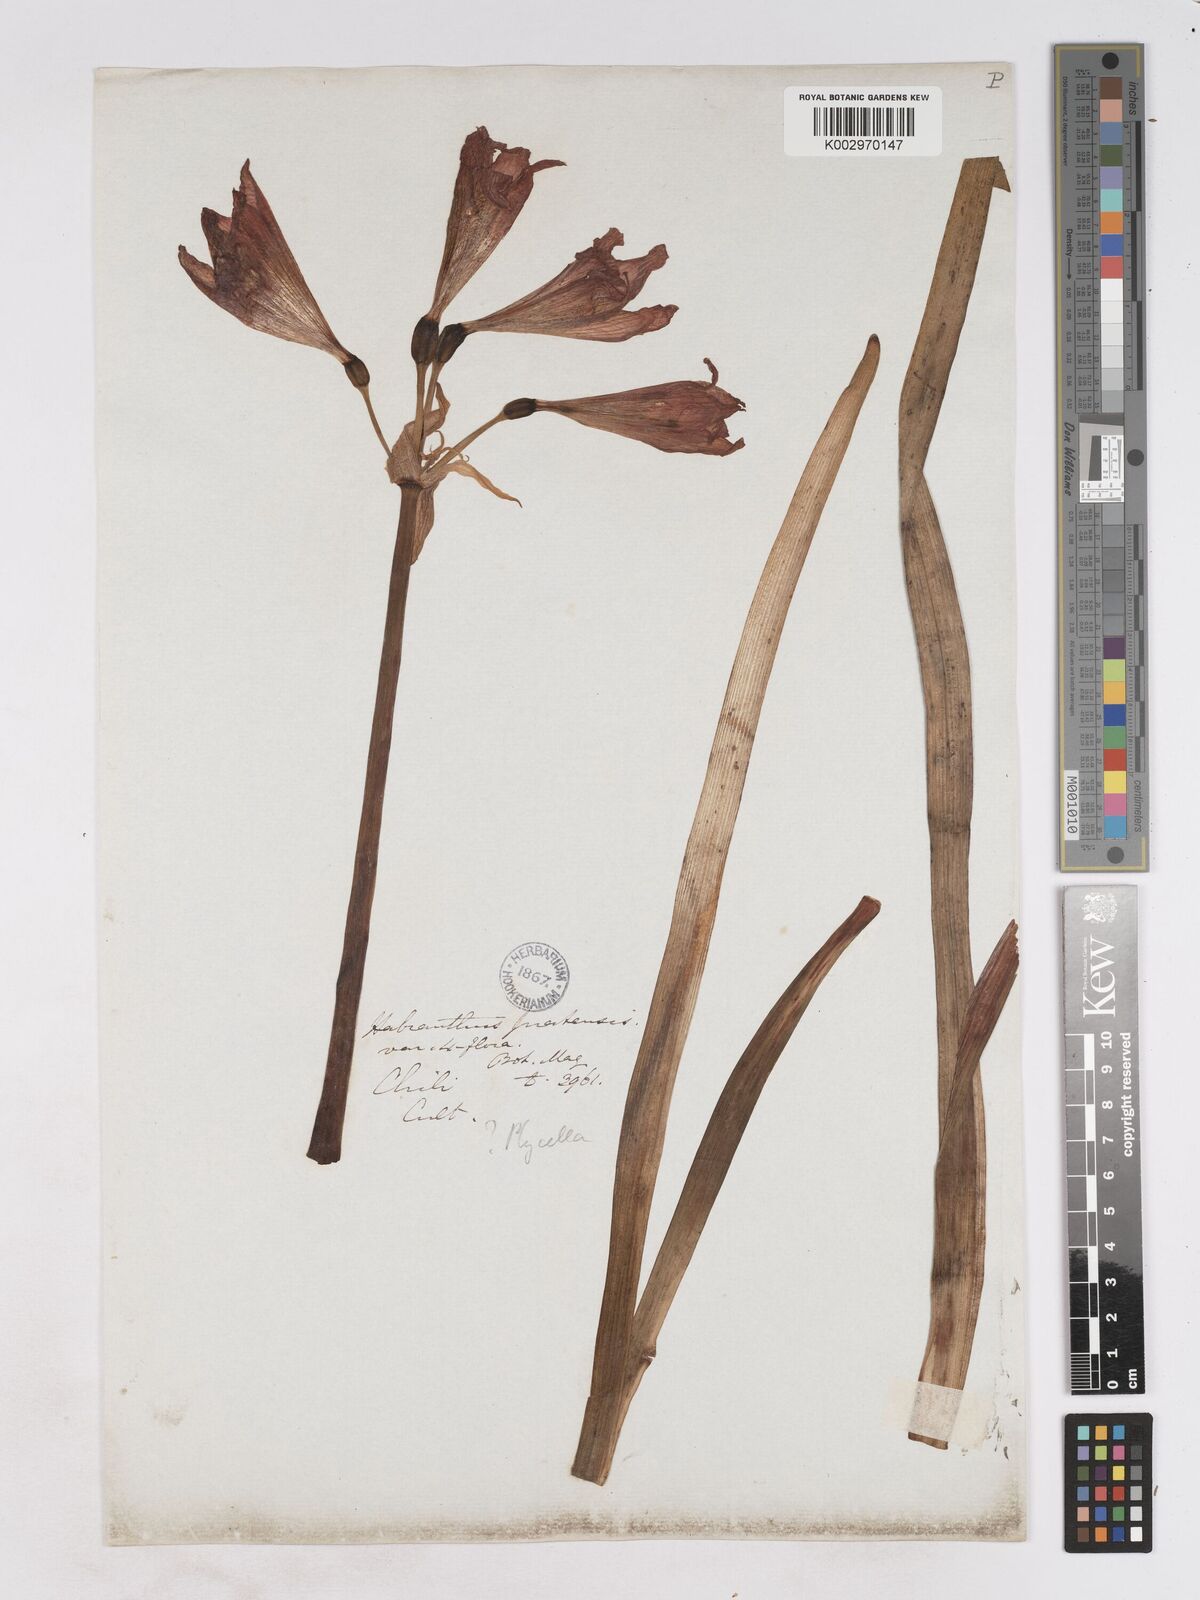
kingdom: Plantae
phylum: Tracheophyta
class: Liliopsida
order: Asparagales
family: Amaryllidaceae
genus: Phycella
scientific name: Phycella chilensis
